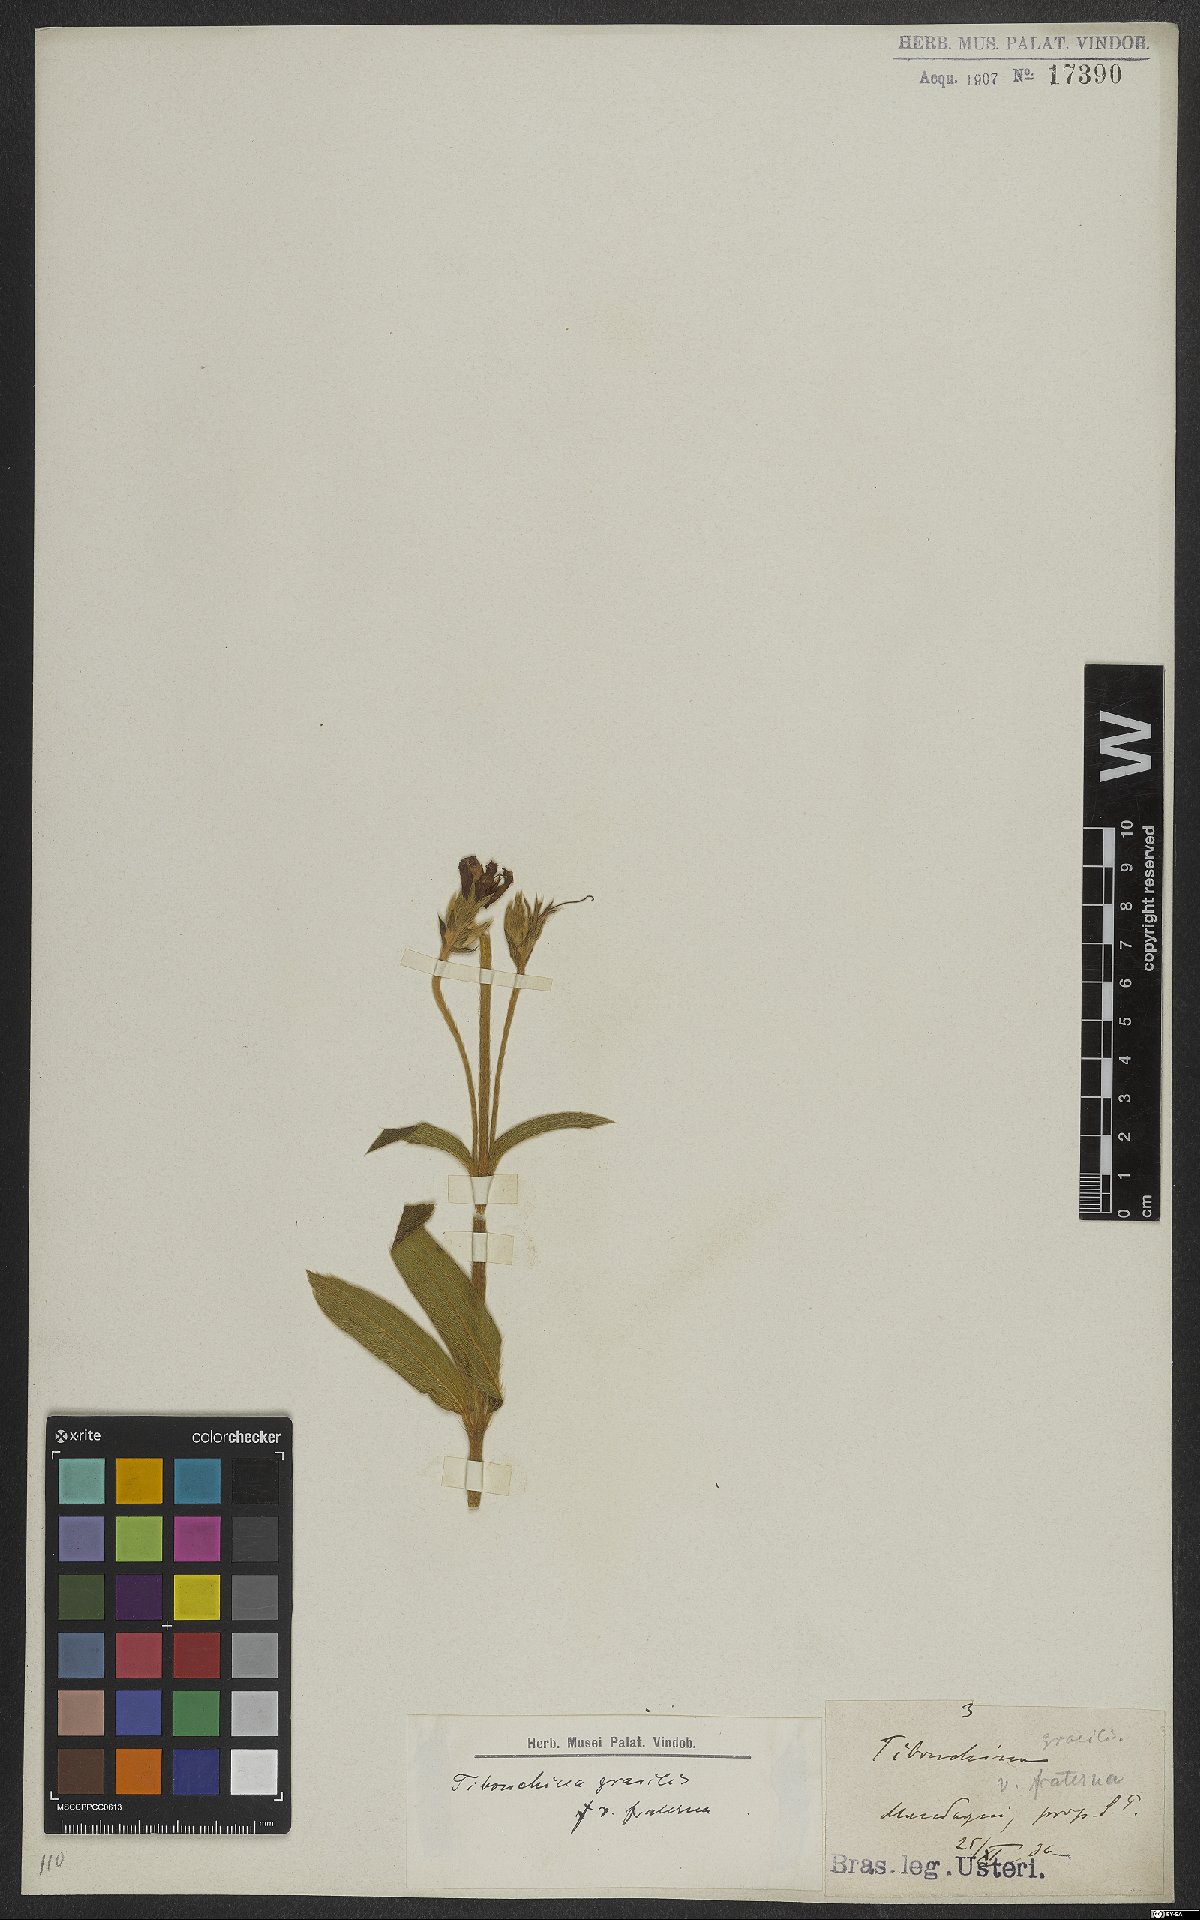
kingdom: Plantae
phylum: Tracheophyta
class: Magnoliopsida
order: Myrtales
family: Melastomataceae
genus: Chaetogastra
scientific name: Chaetogastra gracilis
